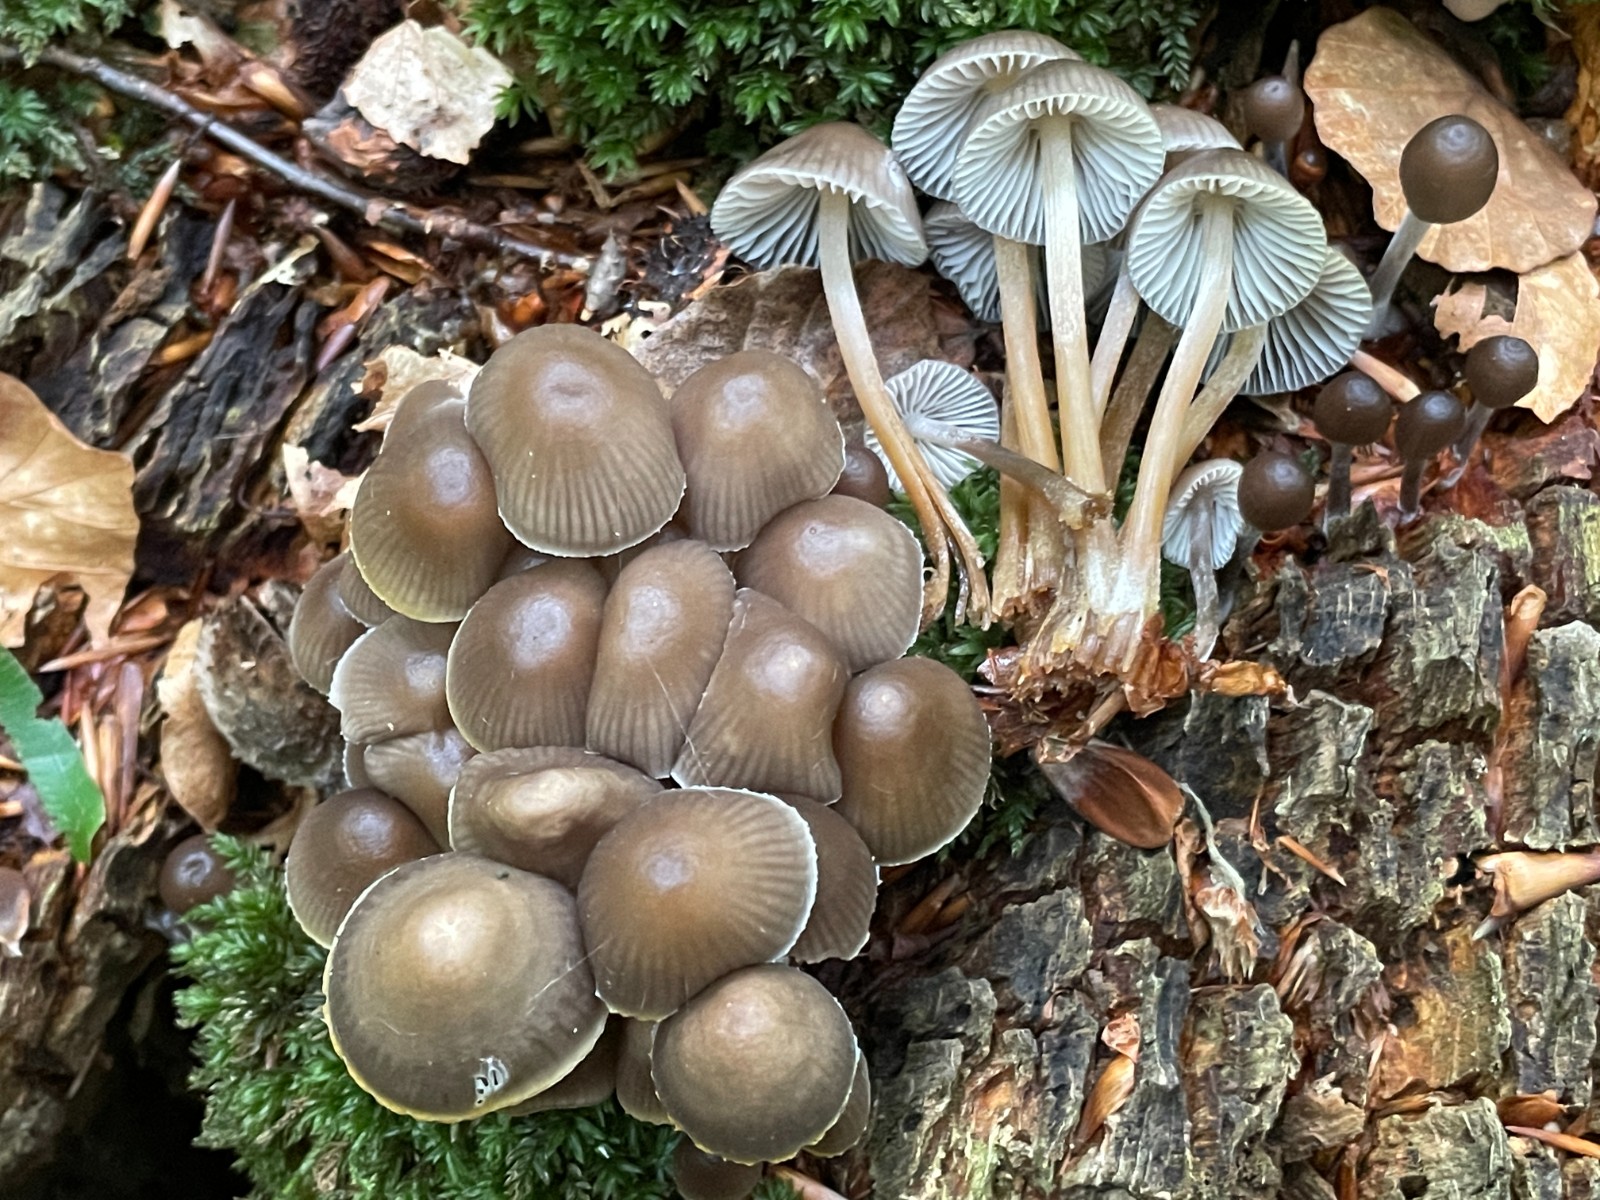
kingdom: Fungi
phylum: Basidiomycota
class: Agaricomycetes
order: Agaricales
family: Mycenaceae
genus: Mycena
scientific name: Mycena inclinata
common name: nikkende huesvamp
